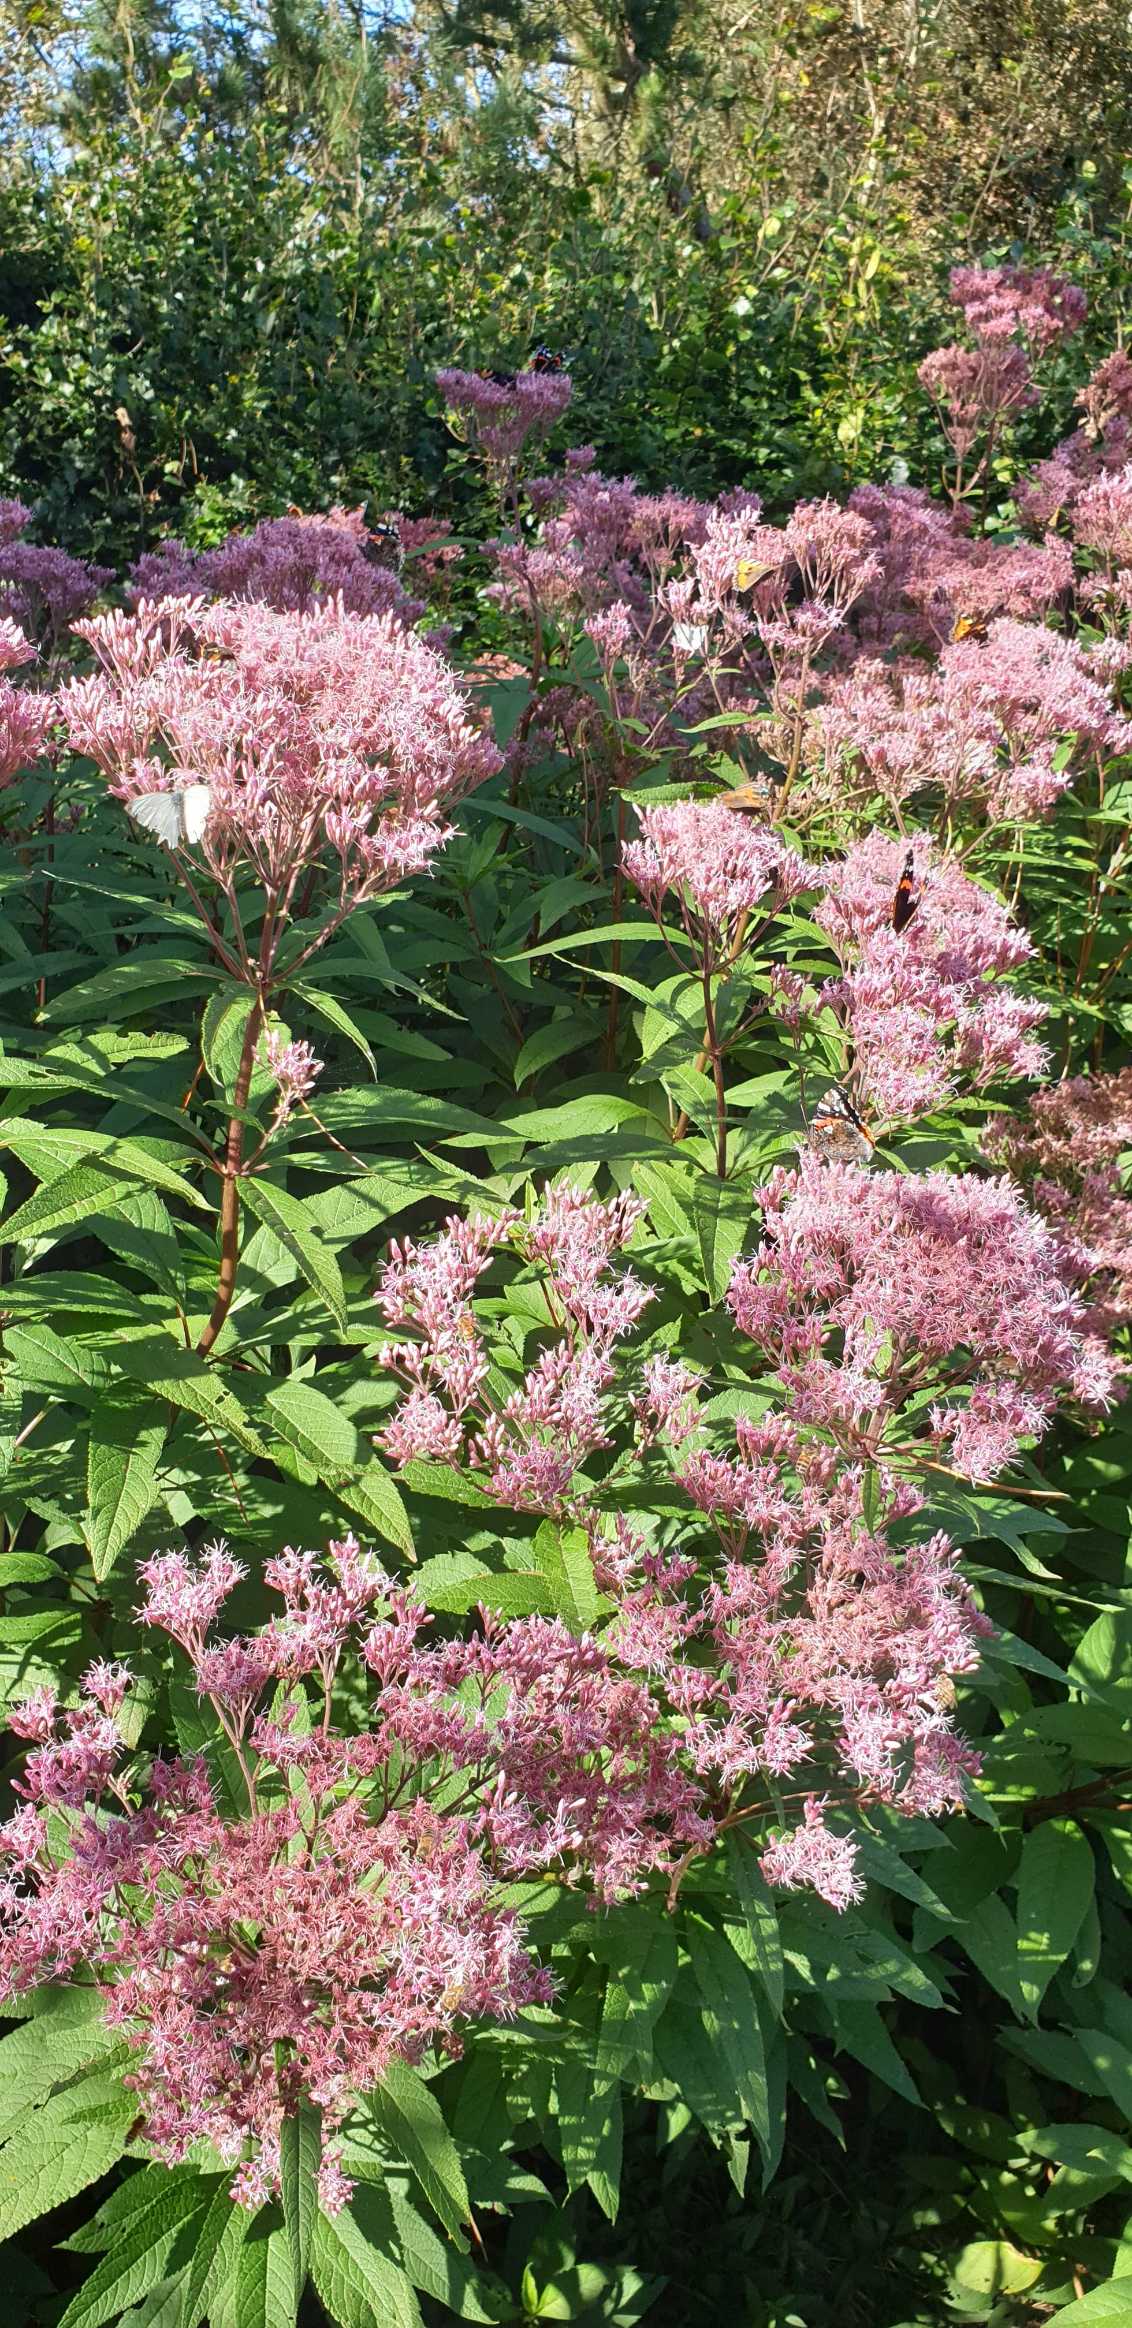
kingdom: Animalia
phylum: Arthropoda
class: Insecta
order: Lepidoptera
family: Nymphalidae
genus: Vanessa
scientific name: Vanessa atalanta
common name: Admiral
